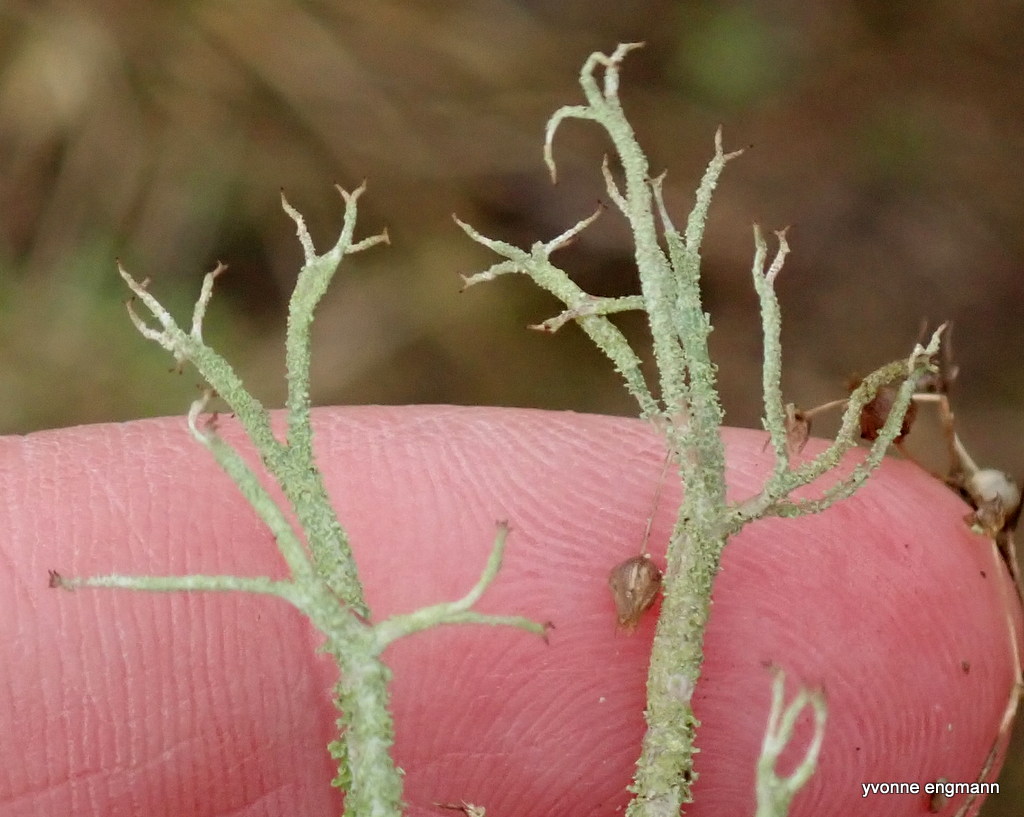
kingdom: Fungi
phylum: Ascomycota
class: Lecanoromycetes
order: Lecanorales
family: Cladoniaceae
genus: Cladonia
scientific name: Cladonia scabriuscula
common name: ru bægerlav
